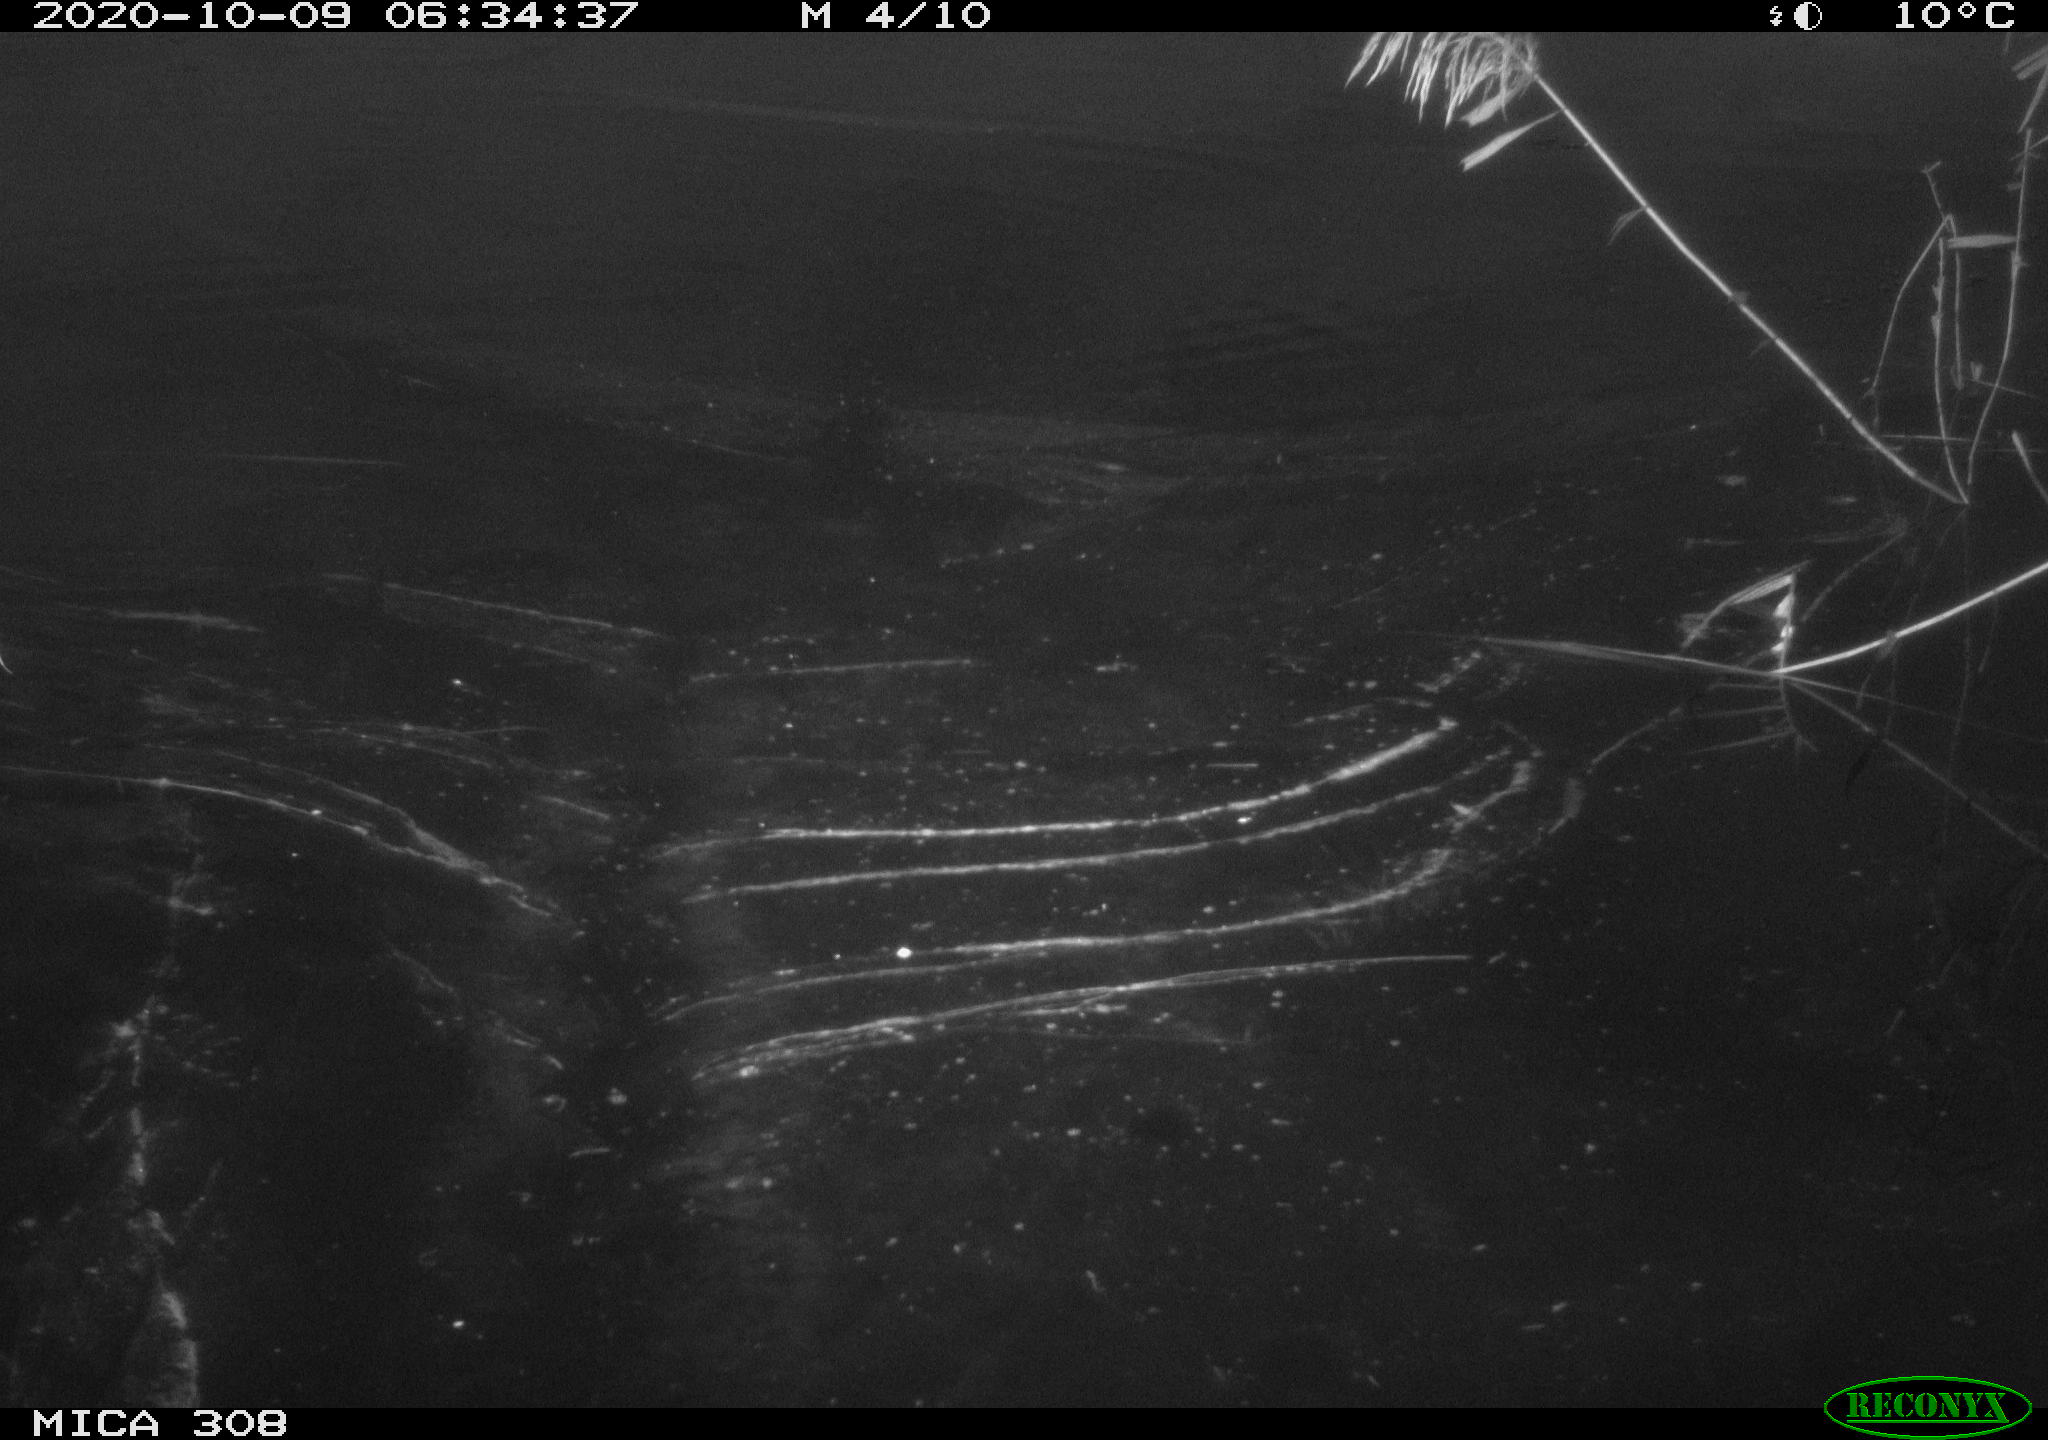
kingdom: Animalia
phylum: Chordata
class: Aves
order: Anseriformes
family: Anatidae
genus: Anas
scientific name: Anas platyrhynchos
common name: Mallard
